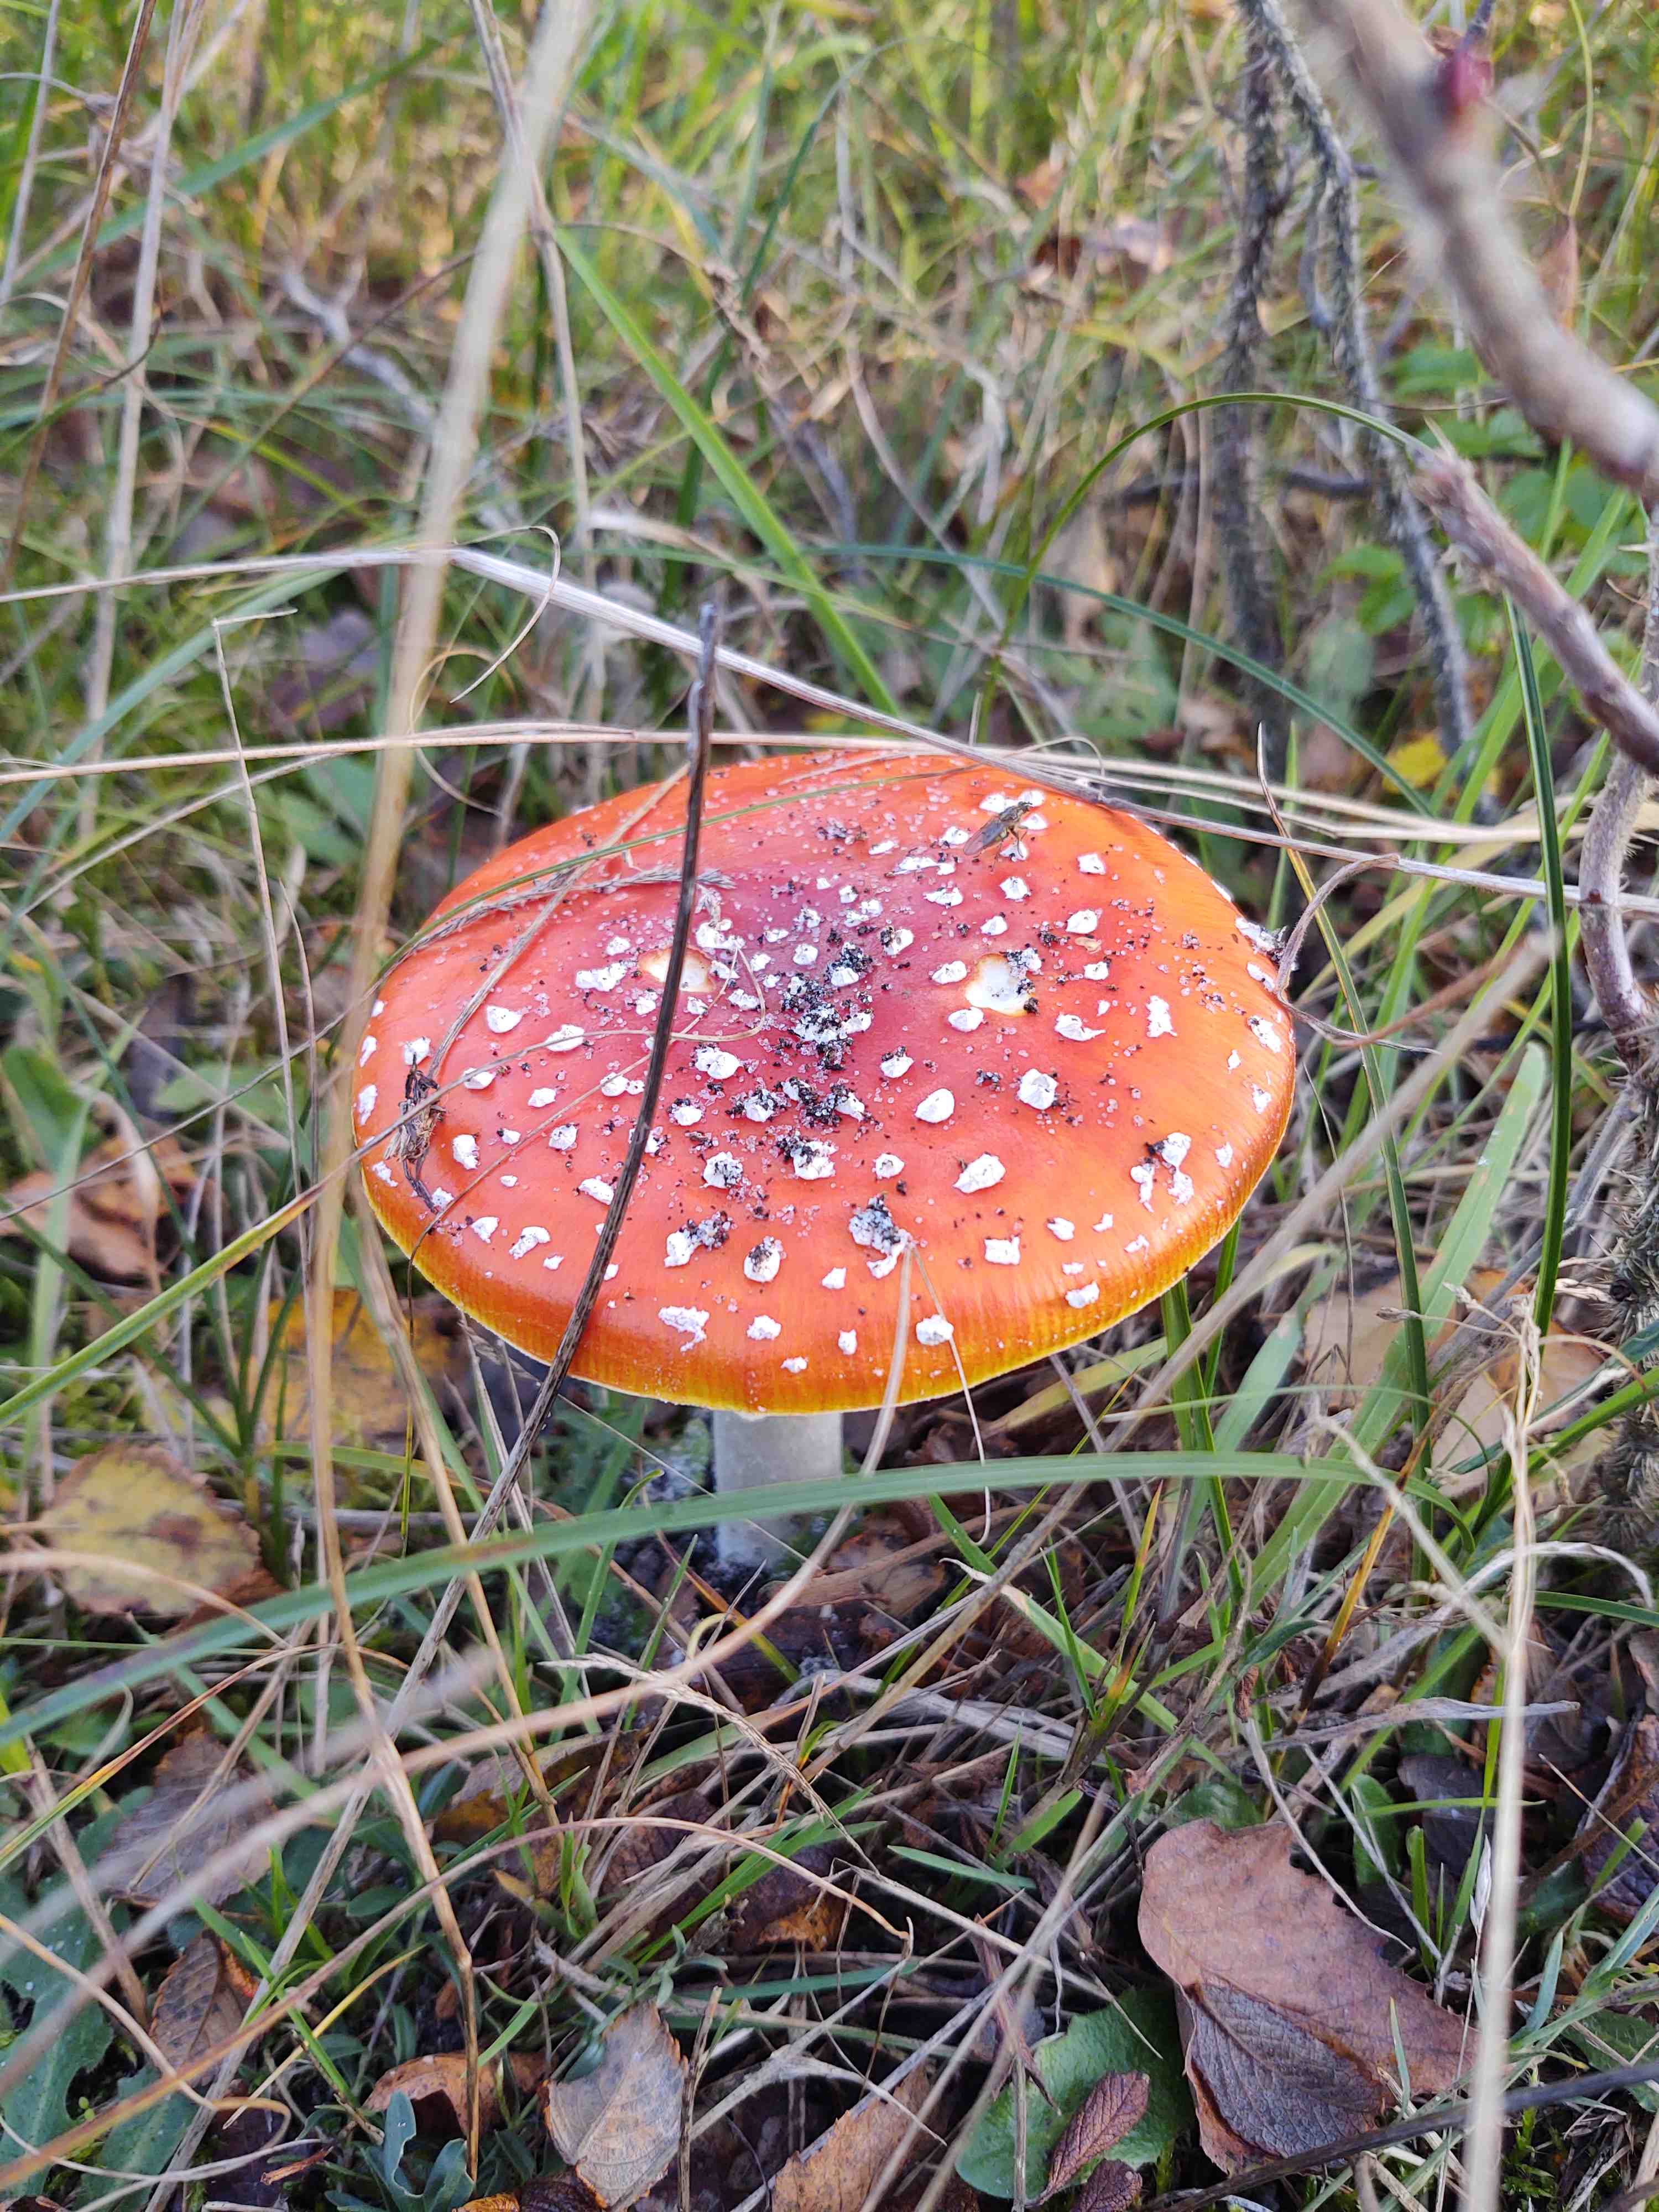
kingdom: Fungi
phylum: Basidiomycota
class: Agaricomycetes
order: Agaricales
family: Amanitaceae
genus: Amanita
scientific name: Amanita muscaria
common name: rød fluesvamp
